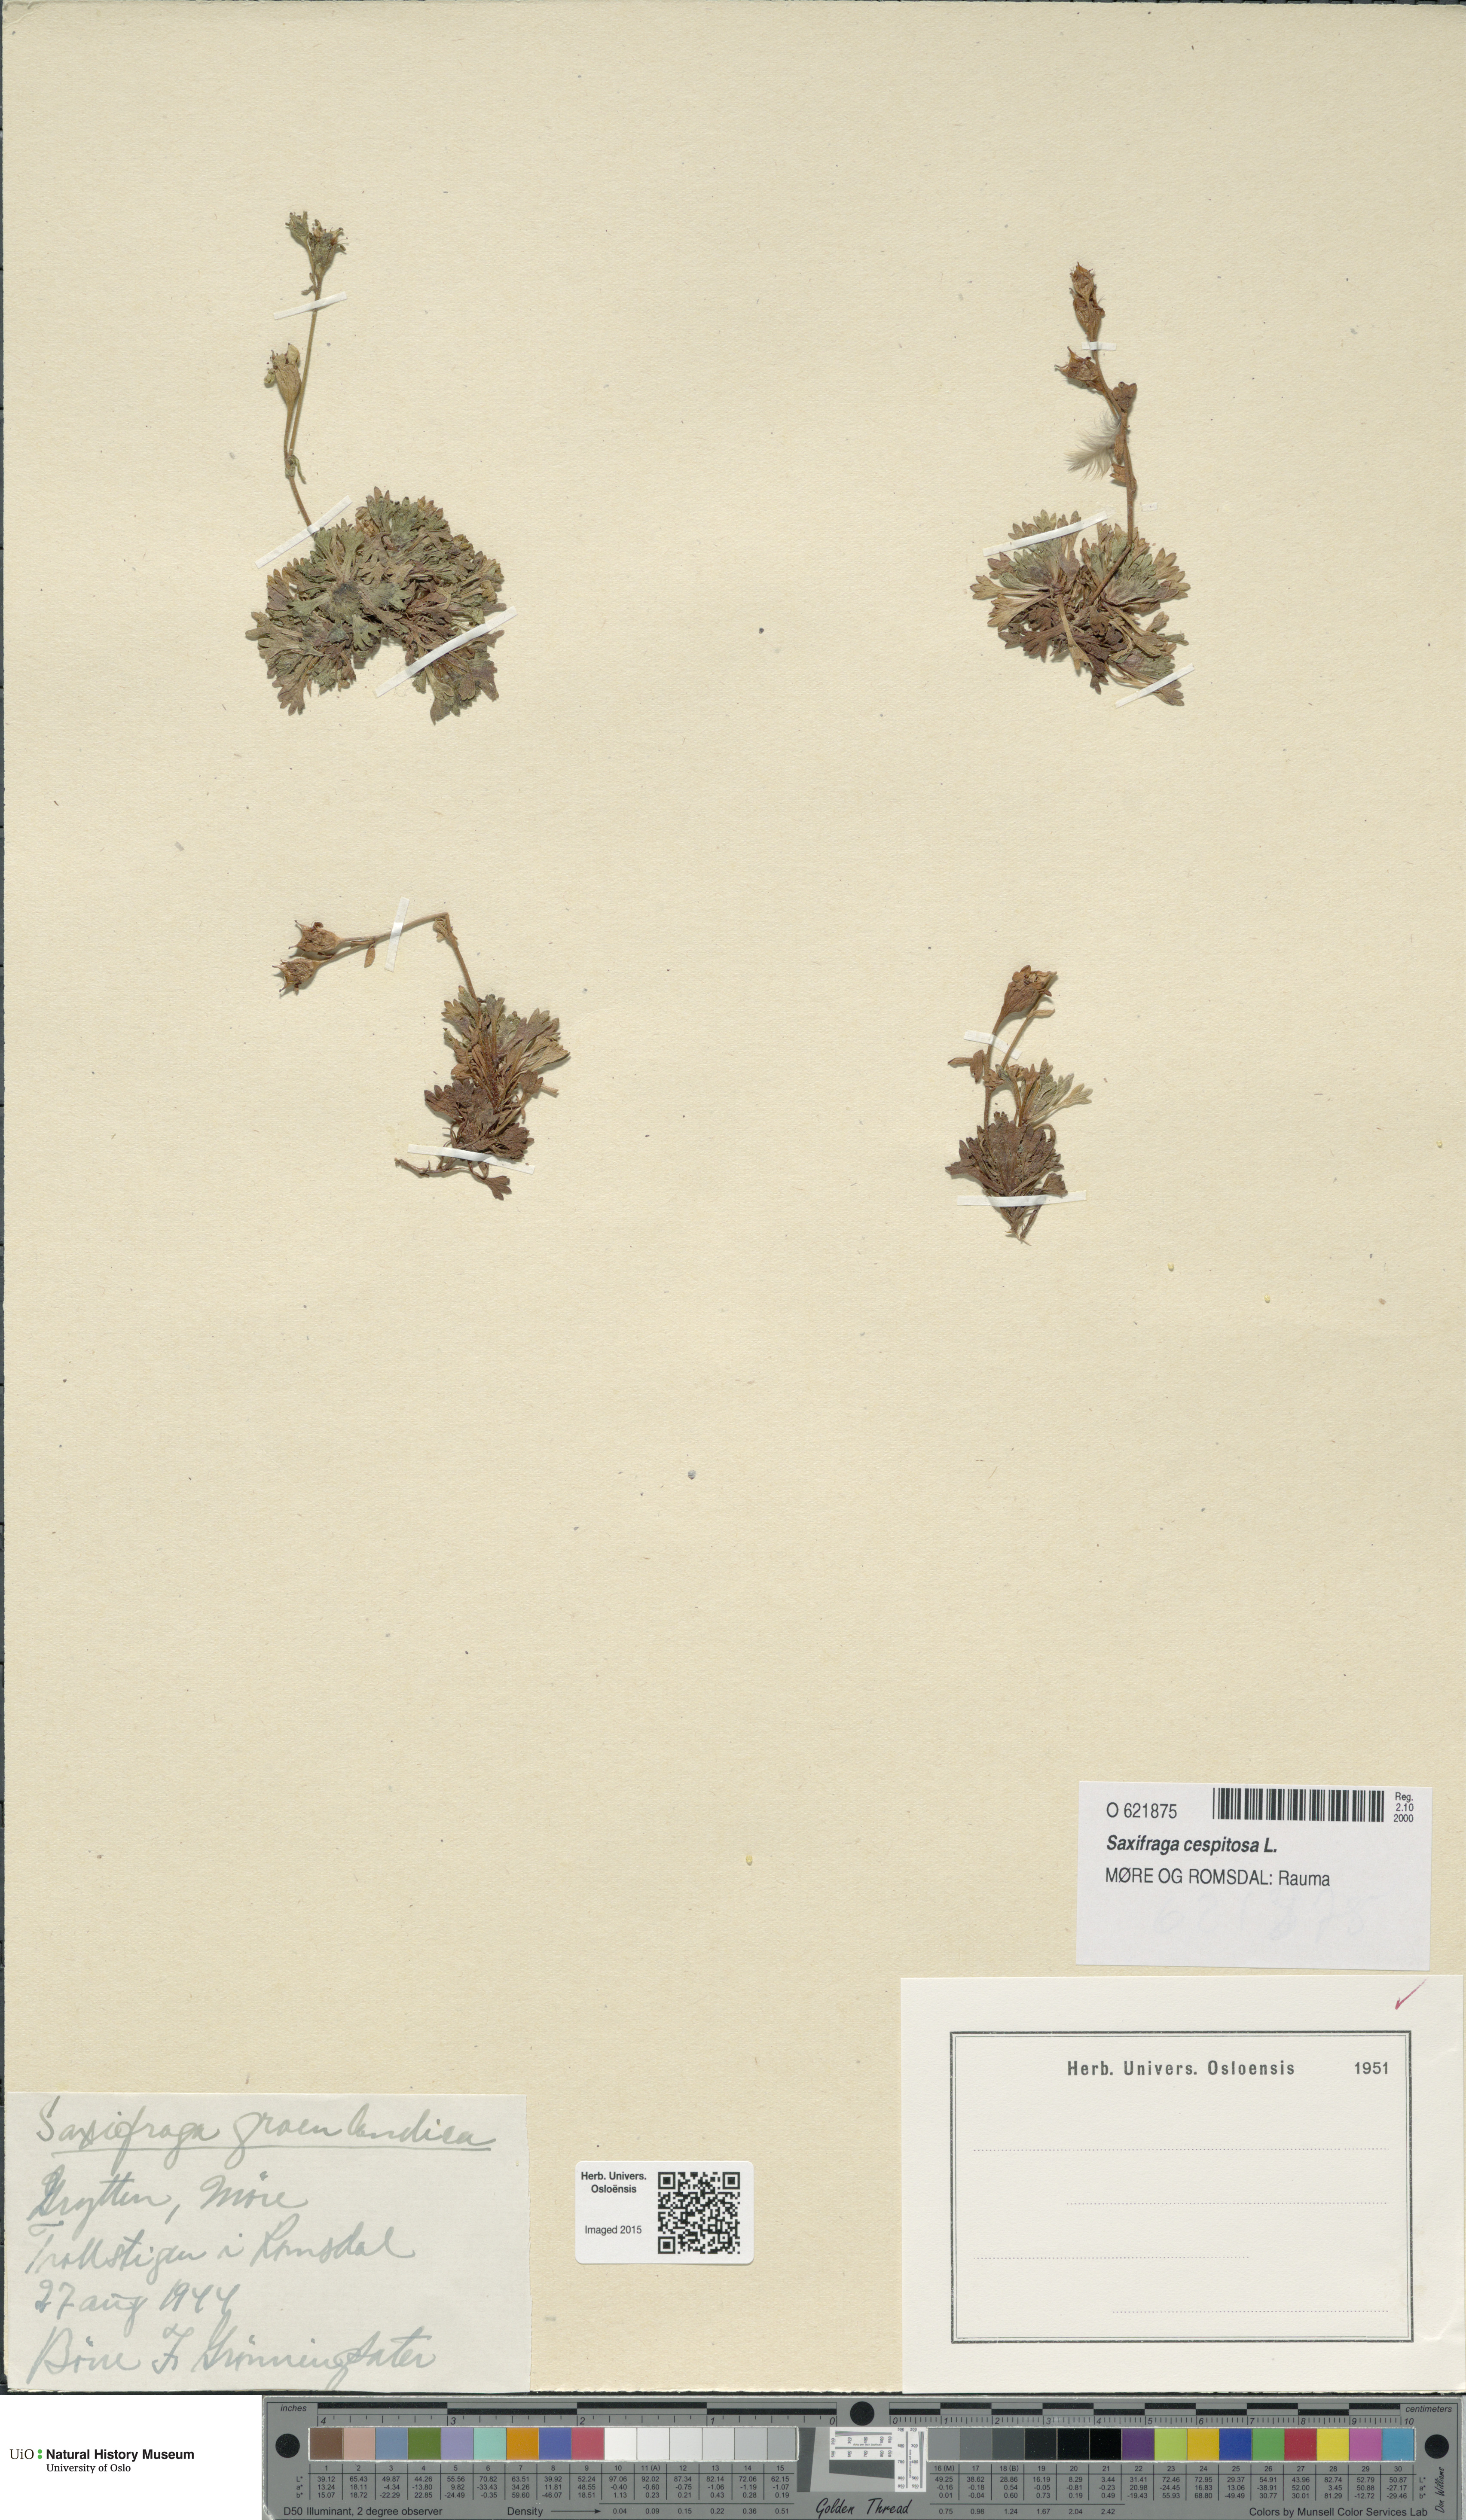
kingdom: Plantae
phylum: Tracheophyta
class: Magnoliopsida
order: Saxifragales
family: Saxifragaceae
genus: Saxifraga
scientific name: Saxifraga cespitosa
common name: Tufted saxifrage
